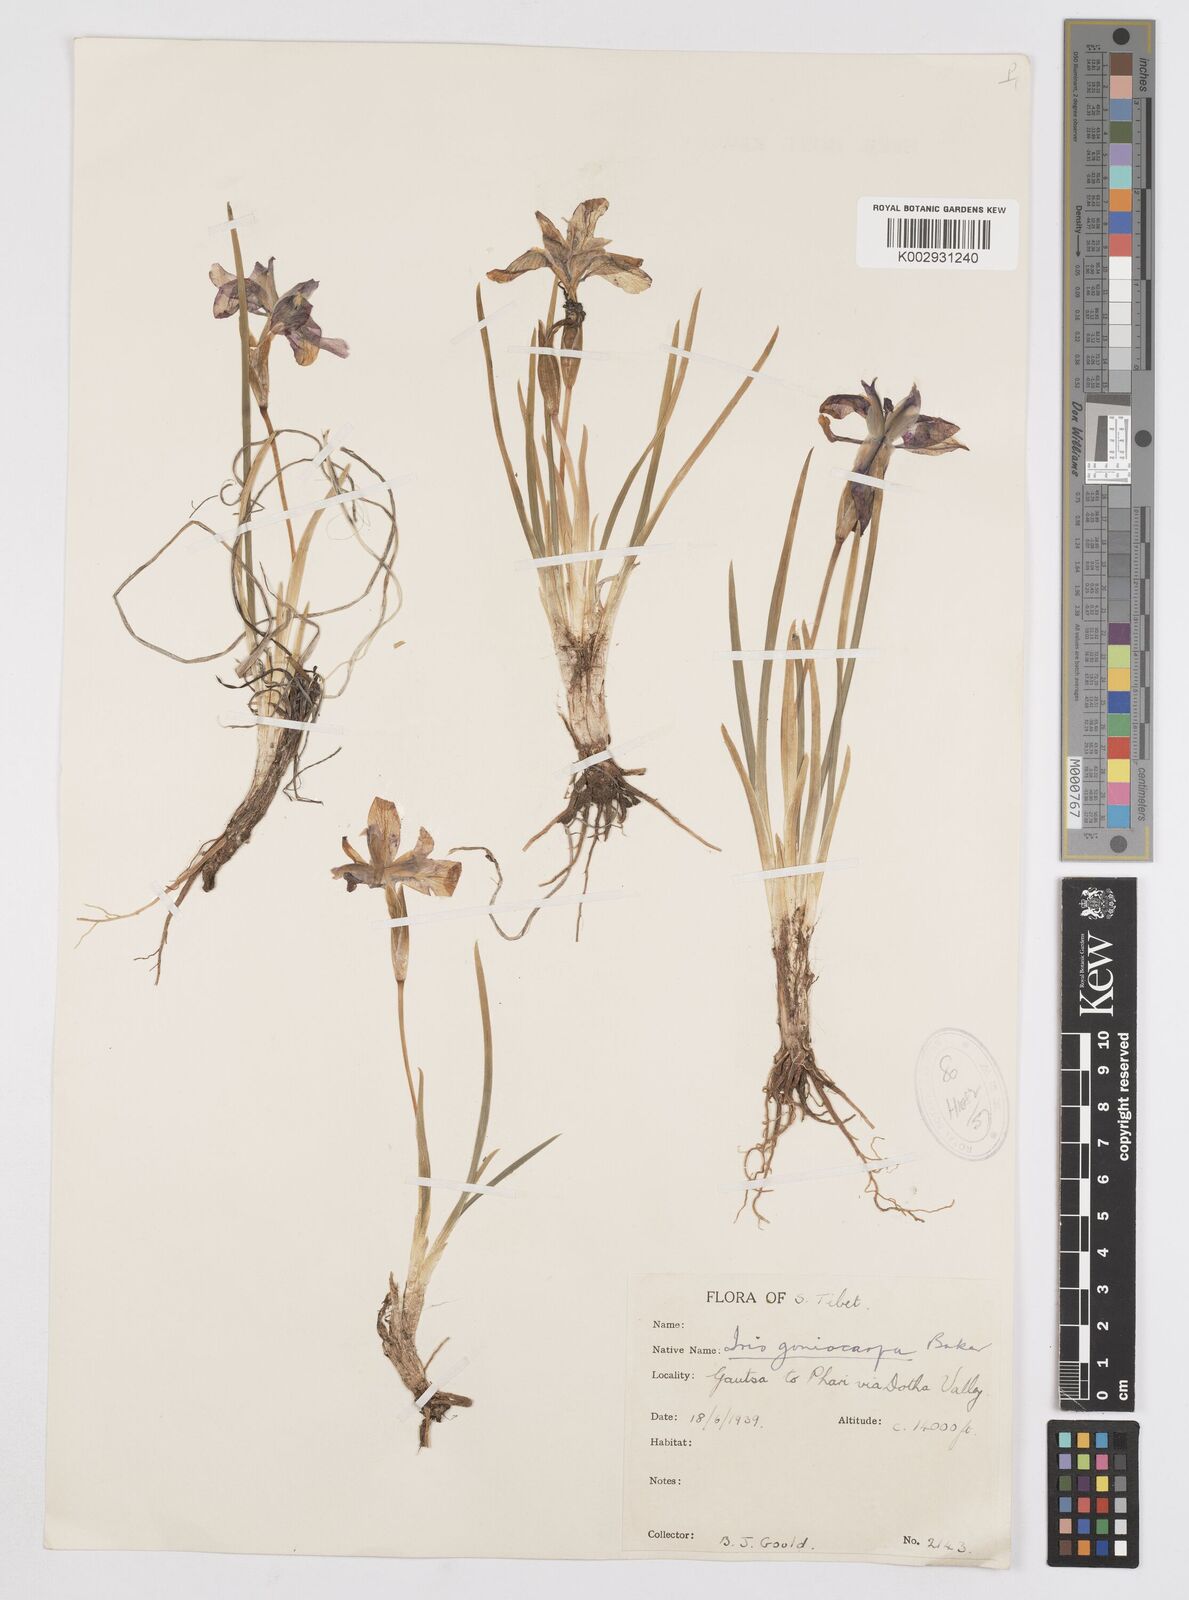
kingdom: Plantae
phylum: Tracheophyta
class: Liliopsida
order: Asparagales
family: Iridaceae
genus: Iris
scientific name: Iris goniocarpa
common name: Angular-fruit iris
